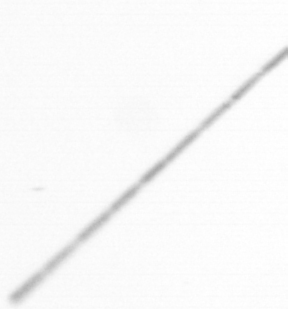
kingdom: Chromista
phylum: Ochrophyta
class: Bacillariophyceae
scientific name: Bacillariophyceae
